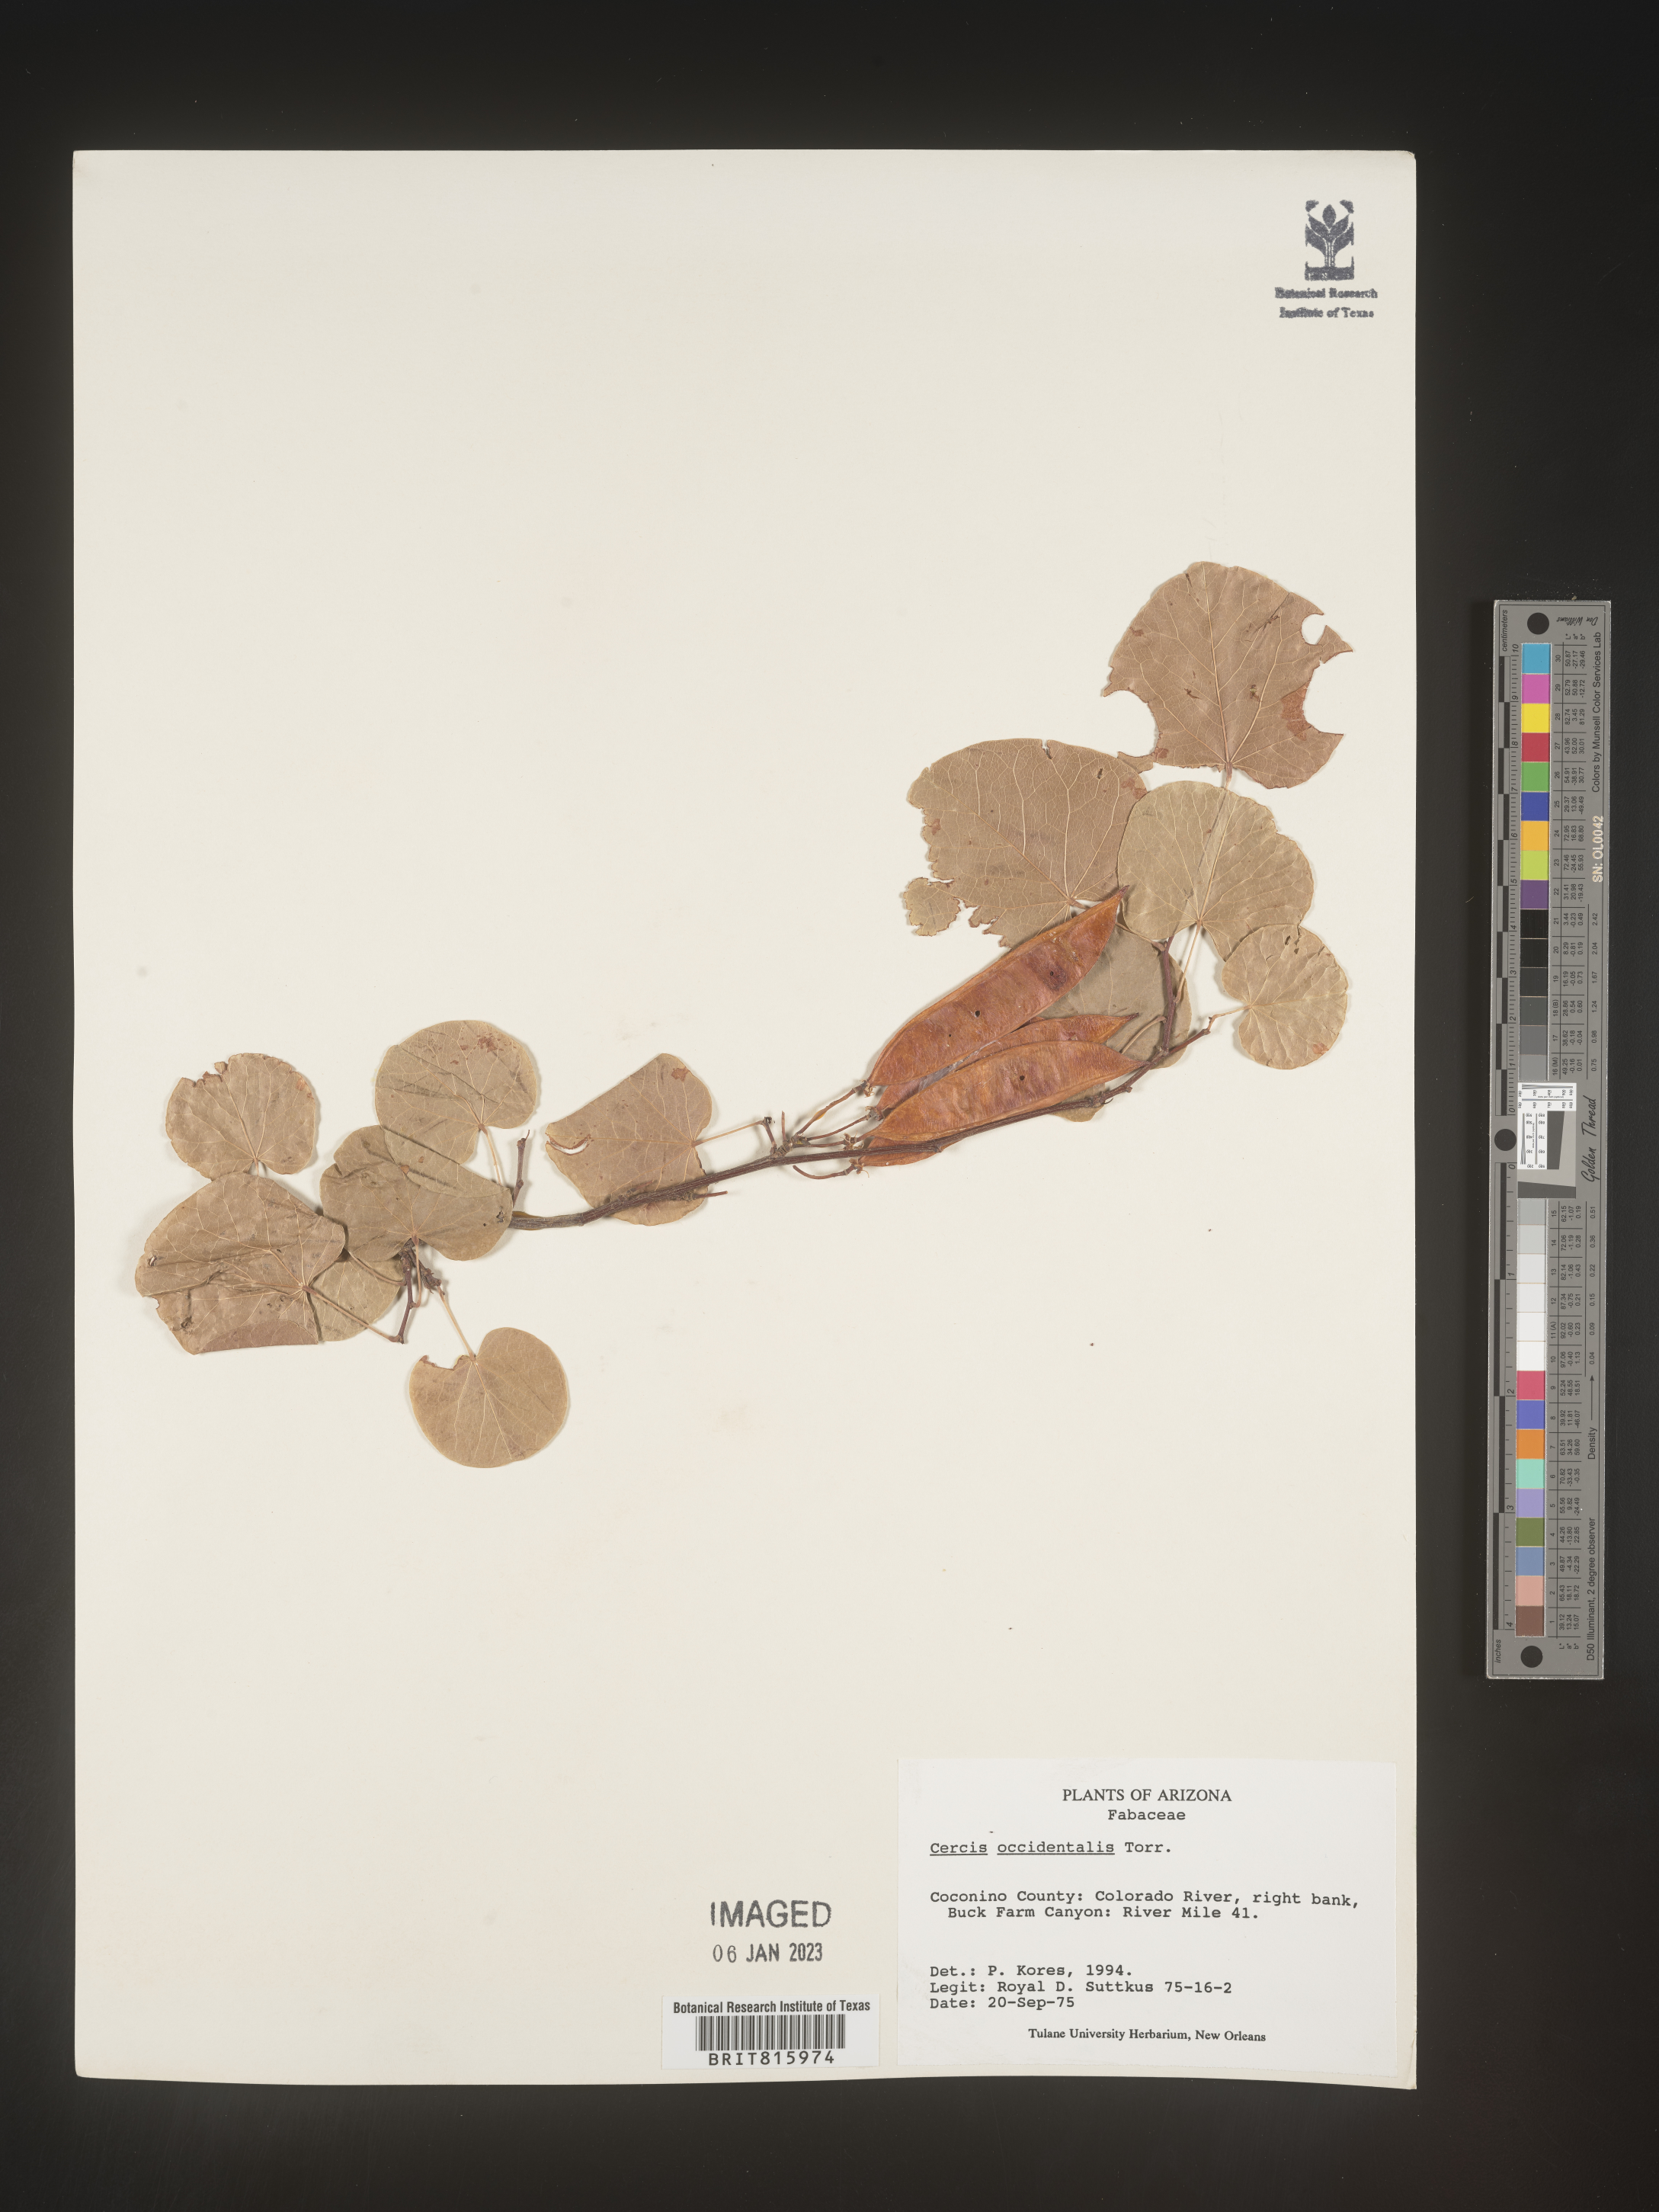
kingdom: Plantae
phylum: Tracheophyta
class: Magnoliopsida
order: Fabales
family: Fabaceae
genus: Cercis
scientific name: Cercis occidentalis
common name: California redbud
